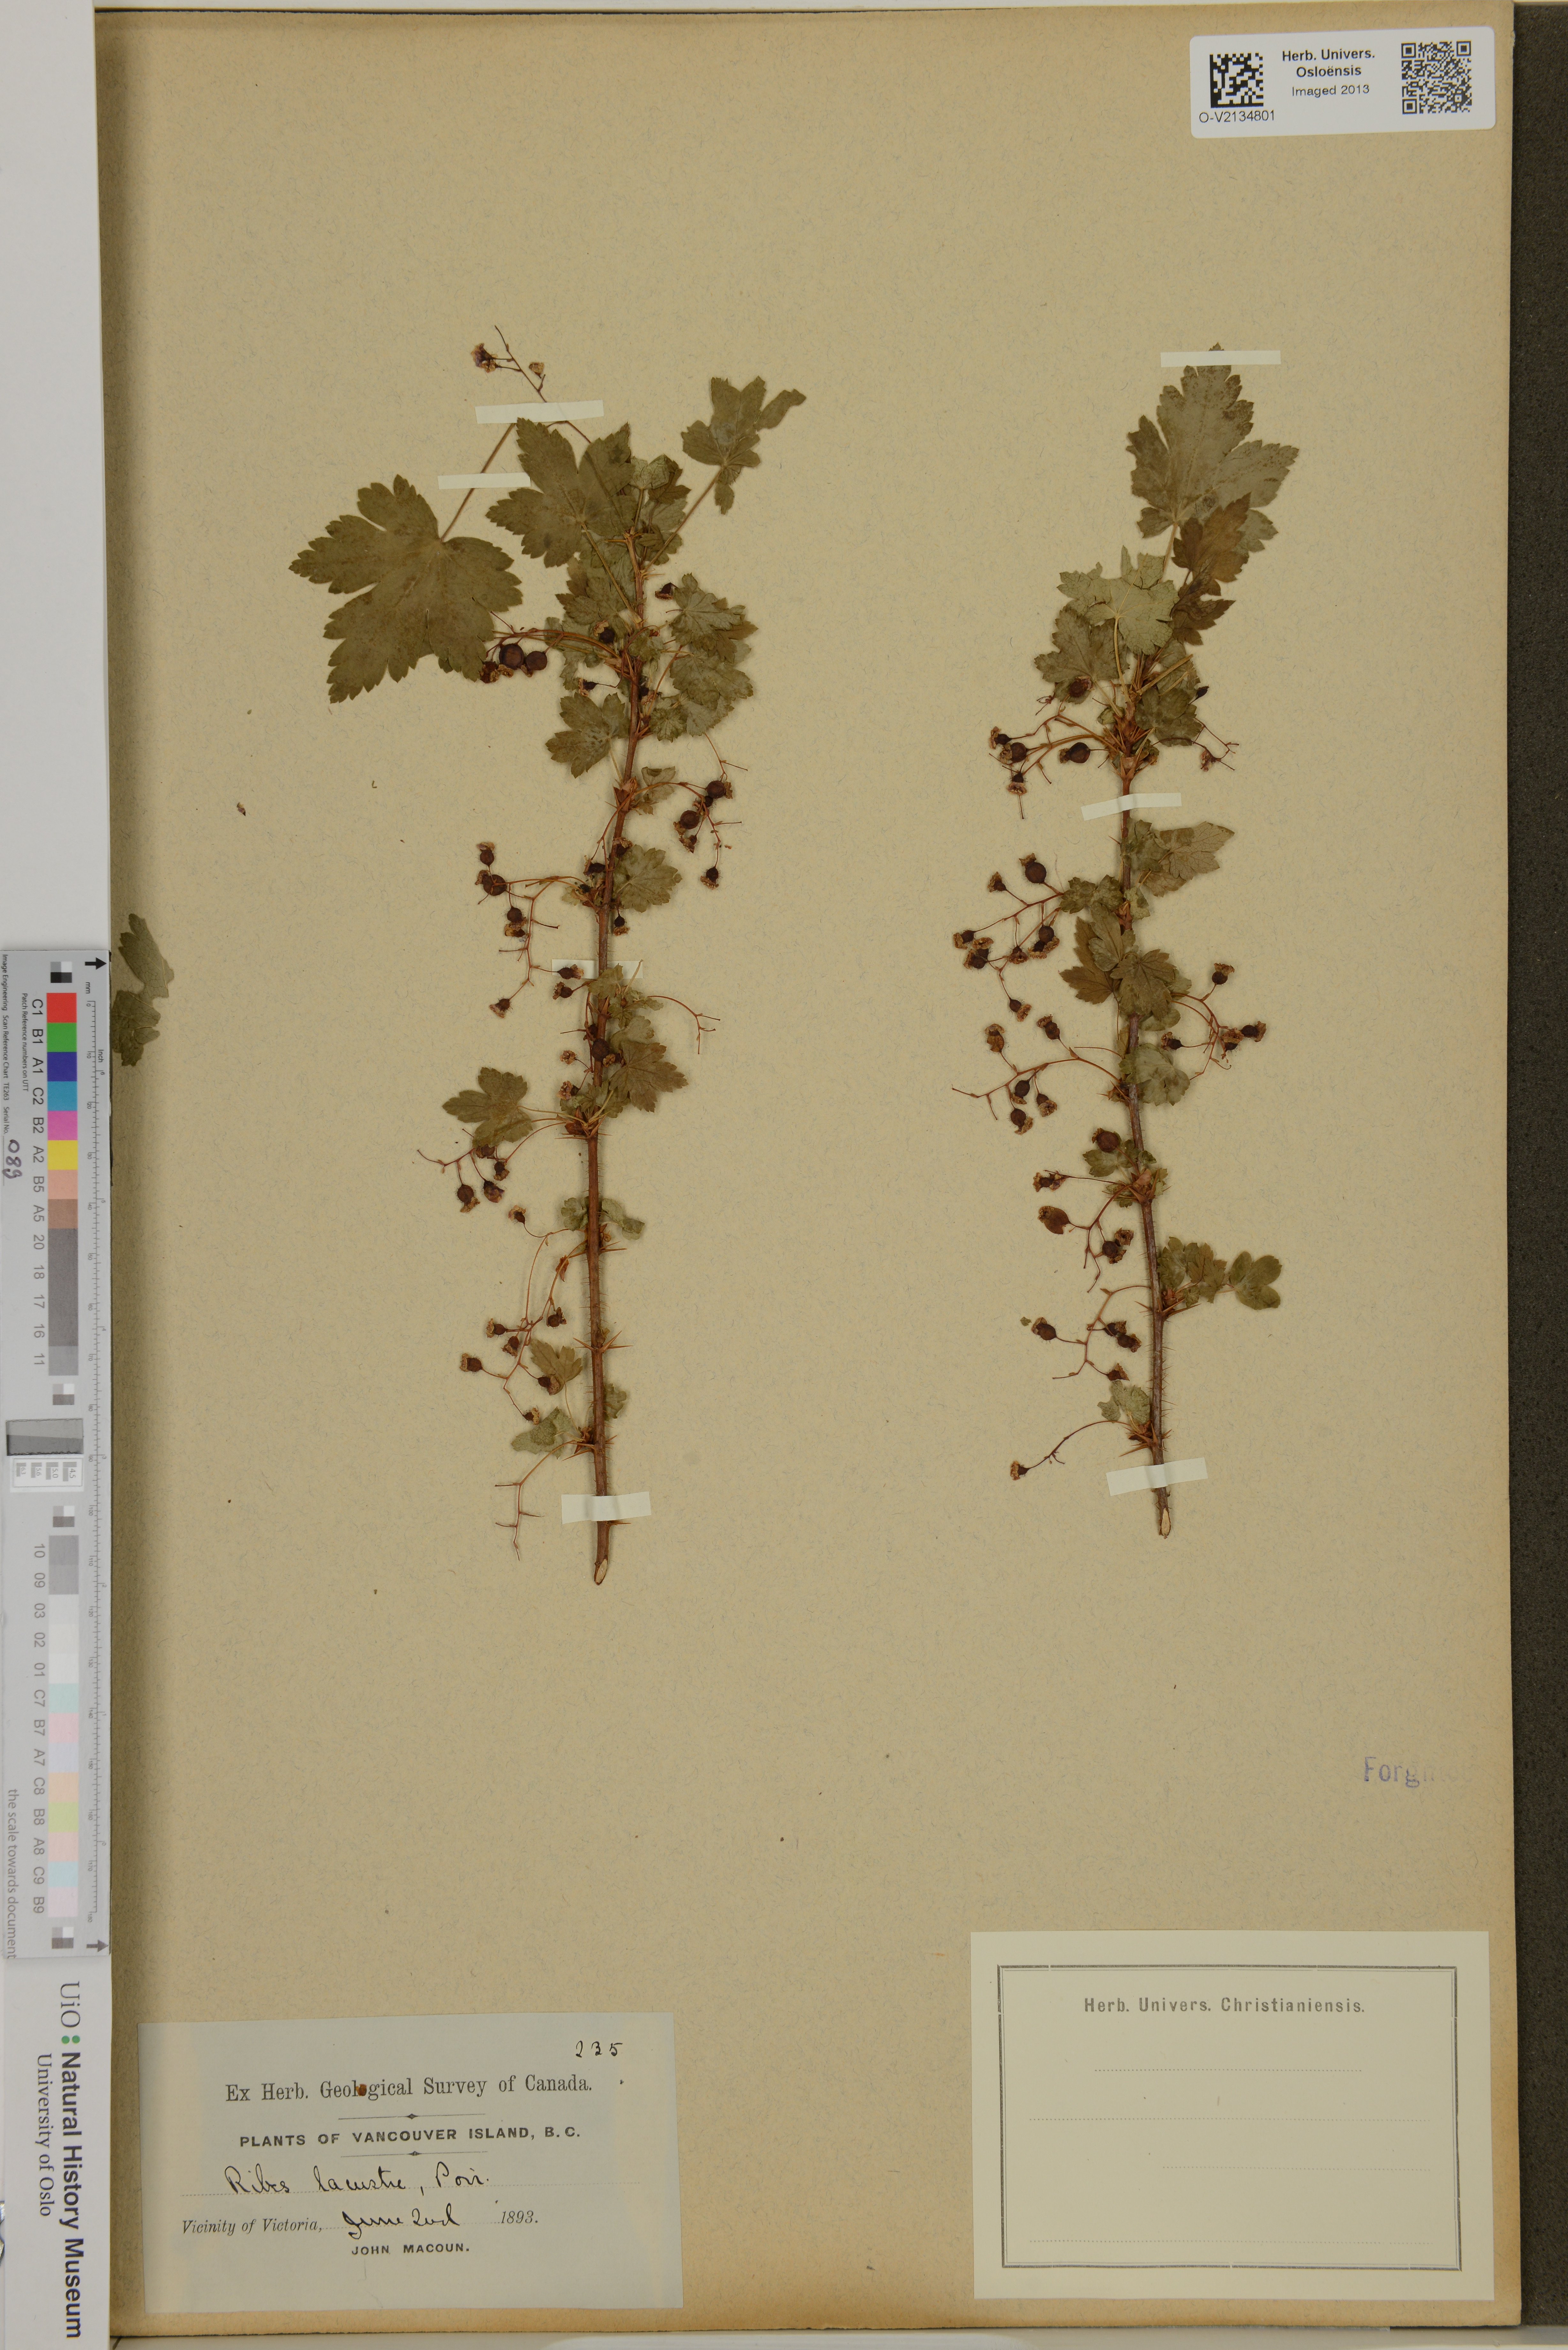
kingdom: Plantae
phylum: Tracheophyta
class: Magnoliopsida
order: Saxifragales
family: Grossulariaceae
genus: Ribes
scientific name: Ribes lacustre
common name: Black gooseberry
